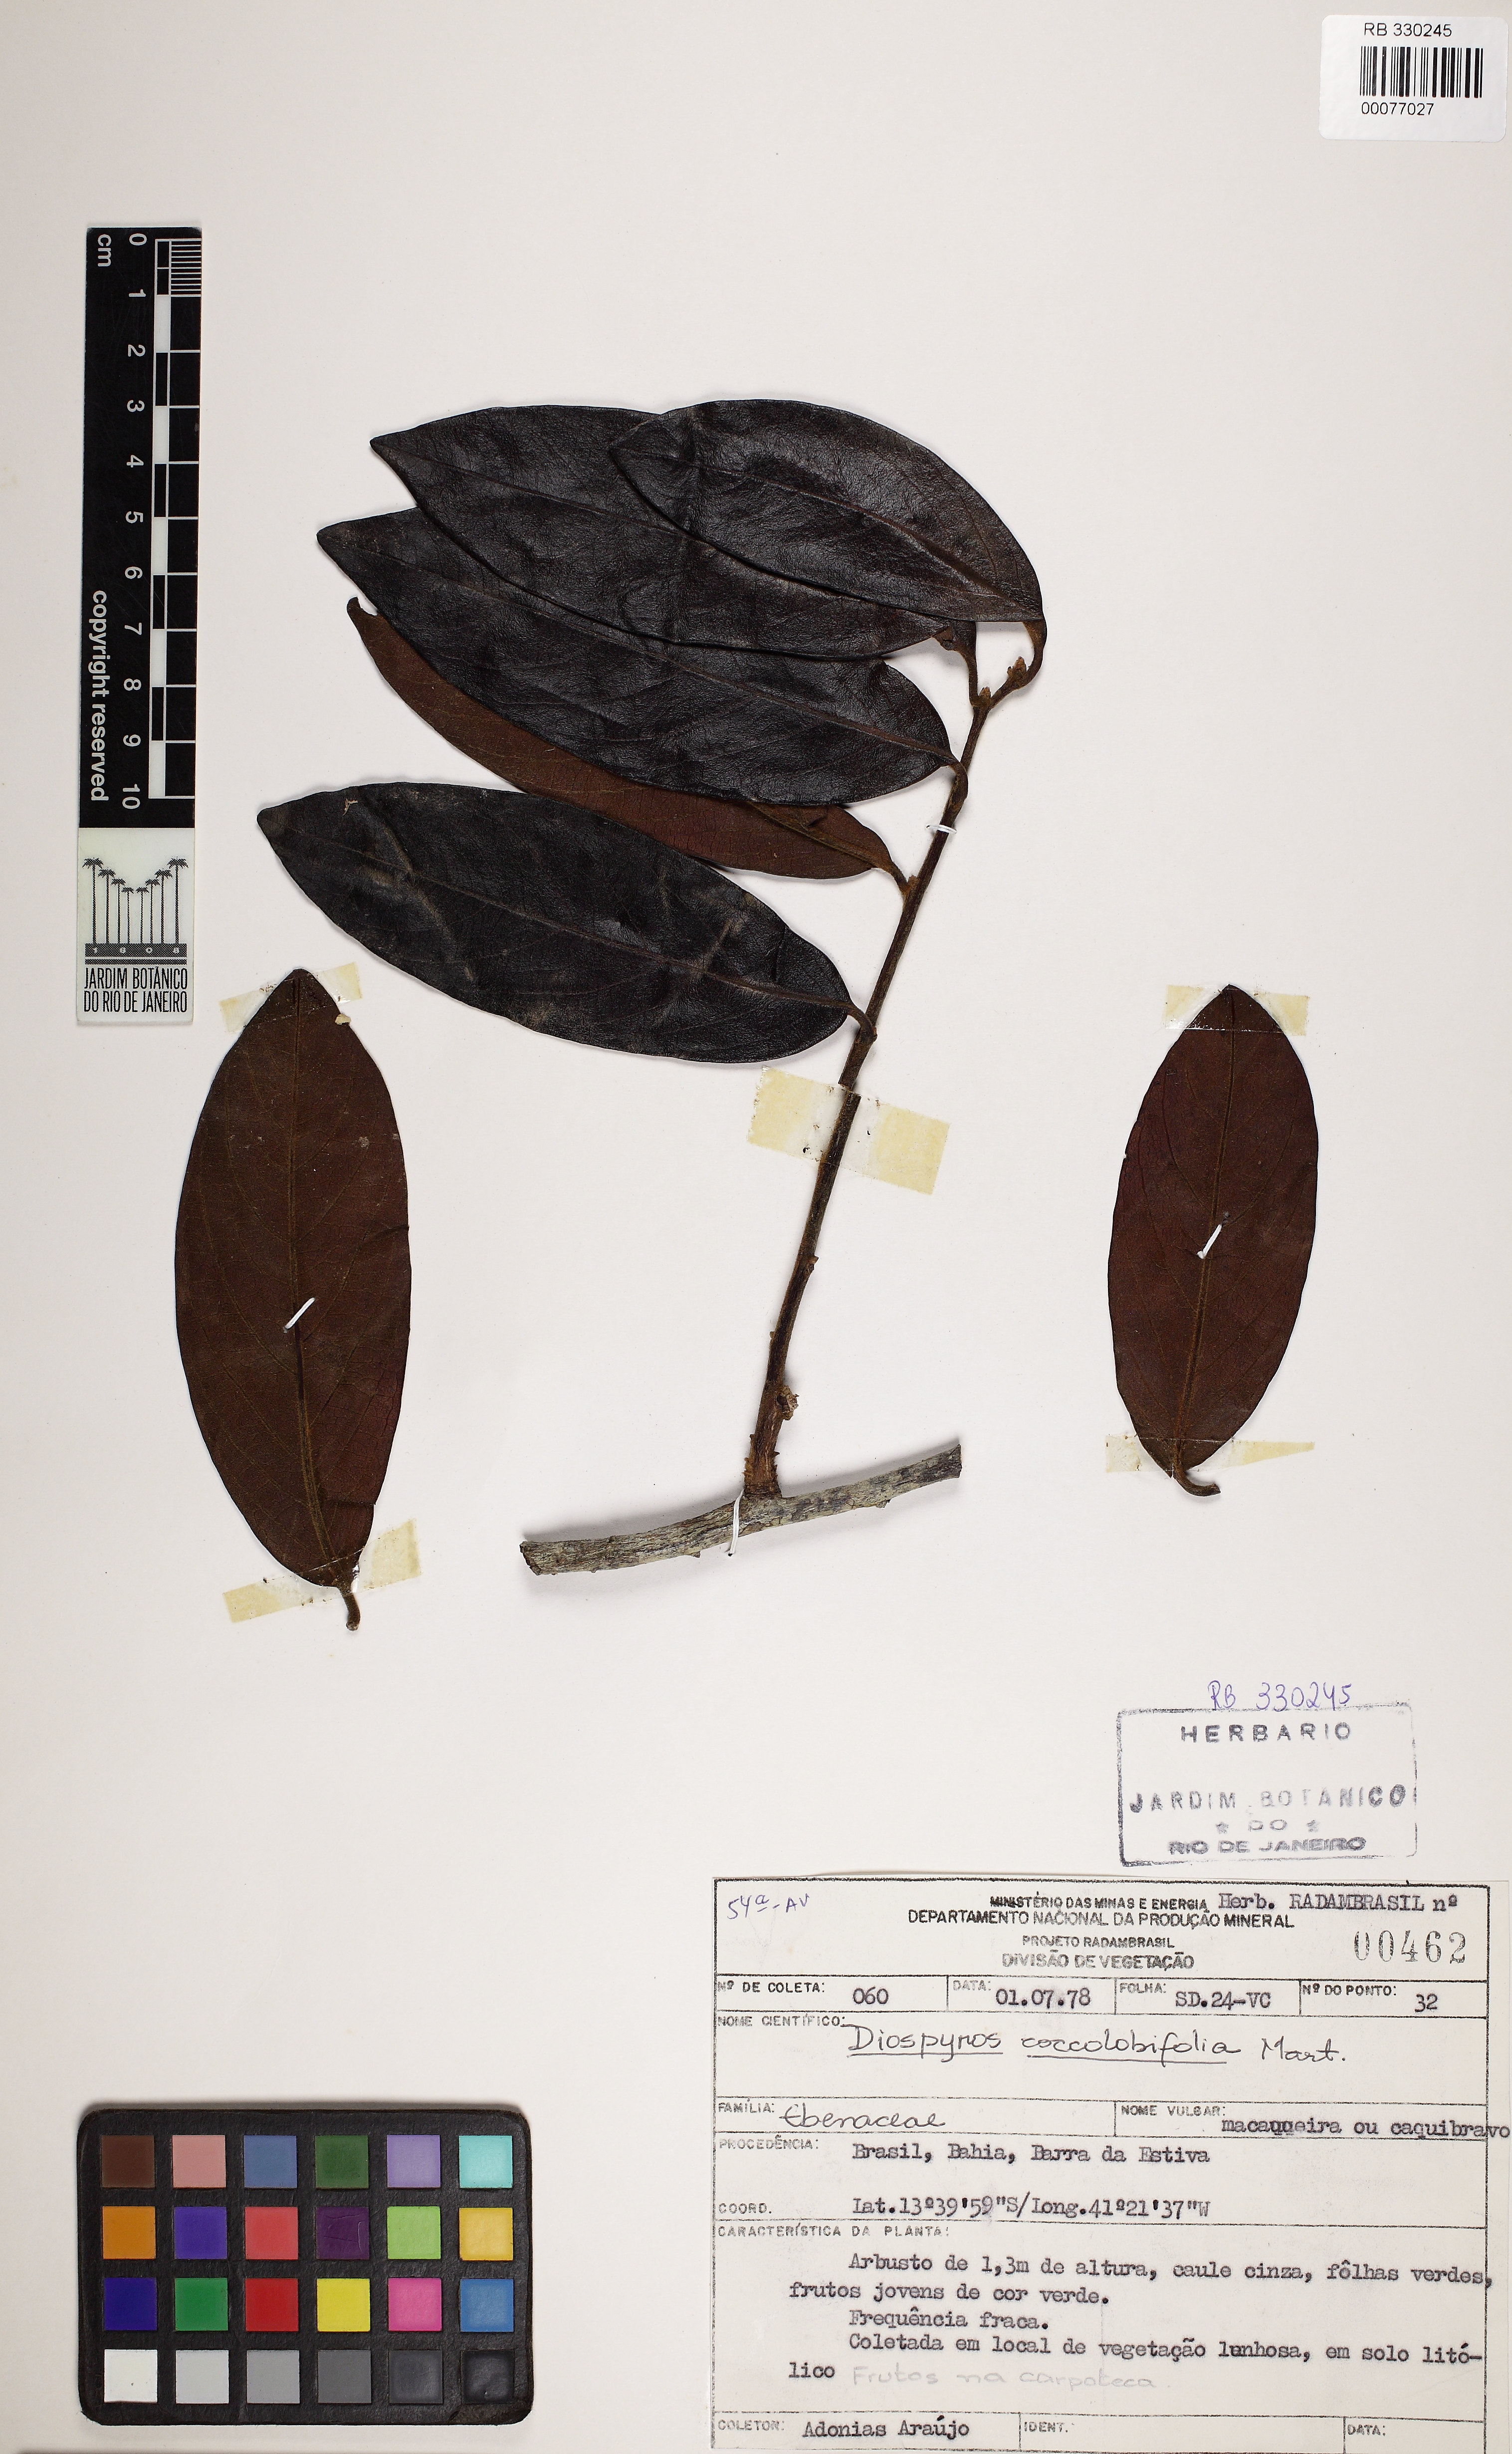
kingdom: Plantae
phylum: Tracheophyta
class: Magnoliopsida
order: Ericales
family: Ebenaceae
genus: Diospyros
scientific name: Diospyros
